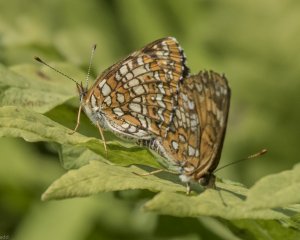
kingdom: Animalia
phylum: Arthropoda
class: Insecta
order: Lepidoptera
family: Nymphalidae
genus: Chlosyne
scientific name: Chlosyne harrisii
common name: Harris's Checkerspot
